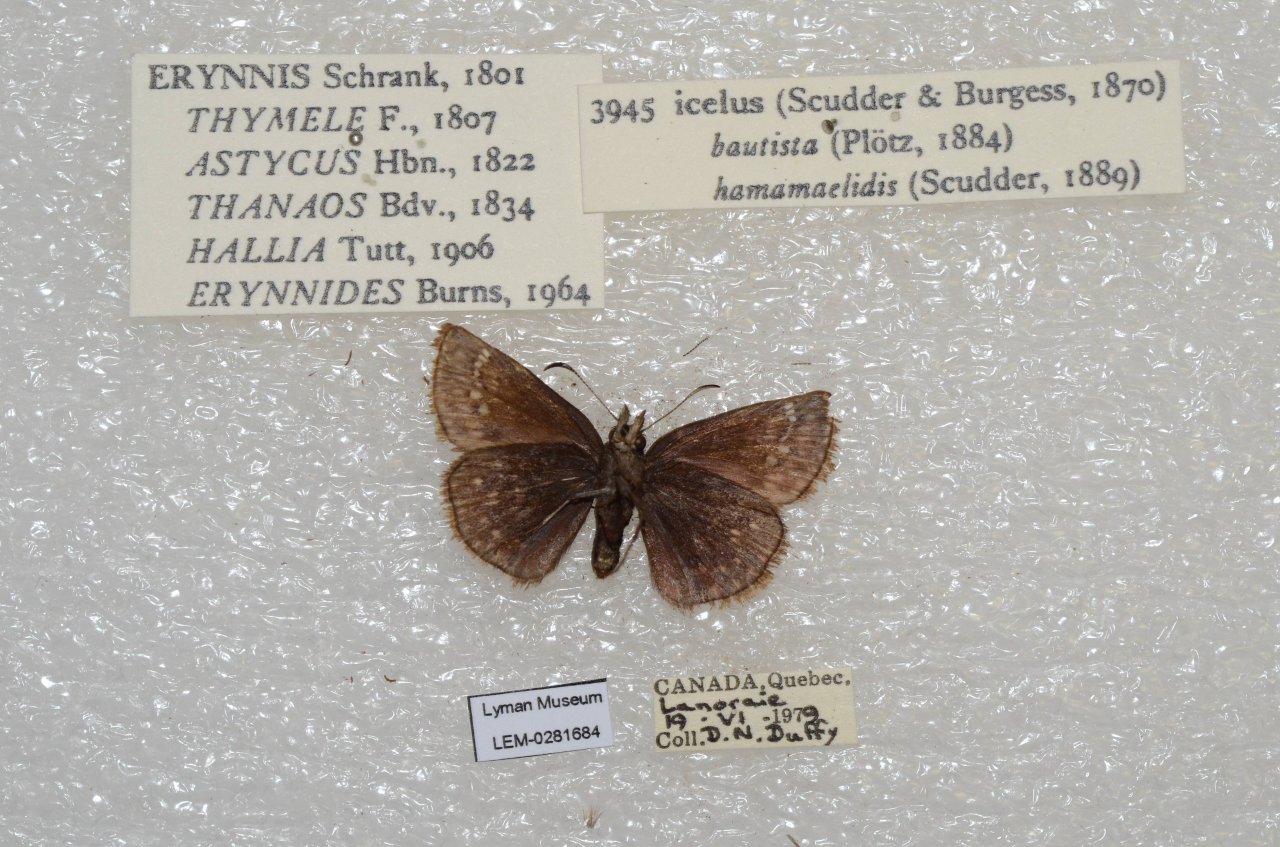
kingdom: Animalia
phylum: Arthropoda
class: Insecta
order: Lepidoptera
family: Hesperiidae
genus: Erynnis
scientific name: Erynnis icelus
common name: Dreamy Duskywing
